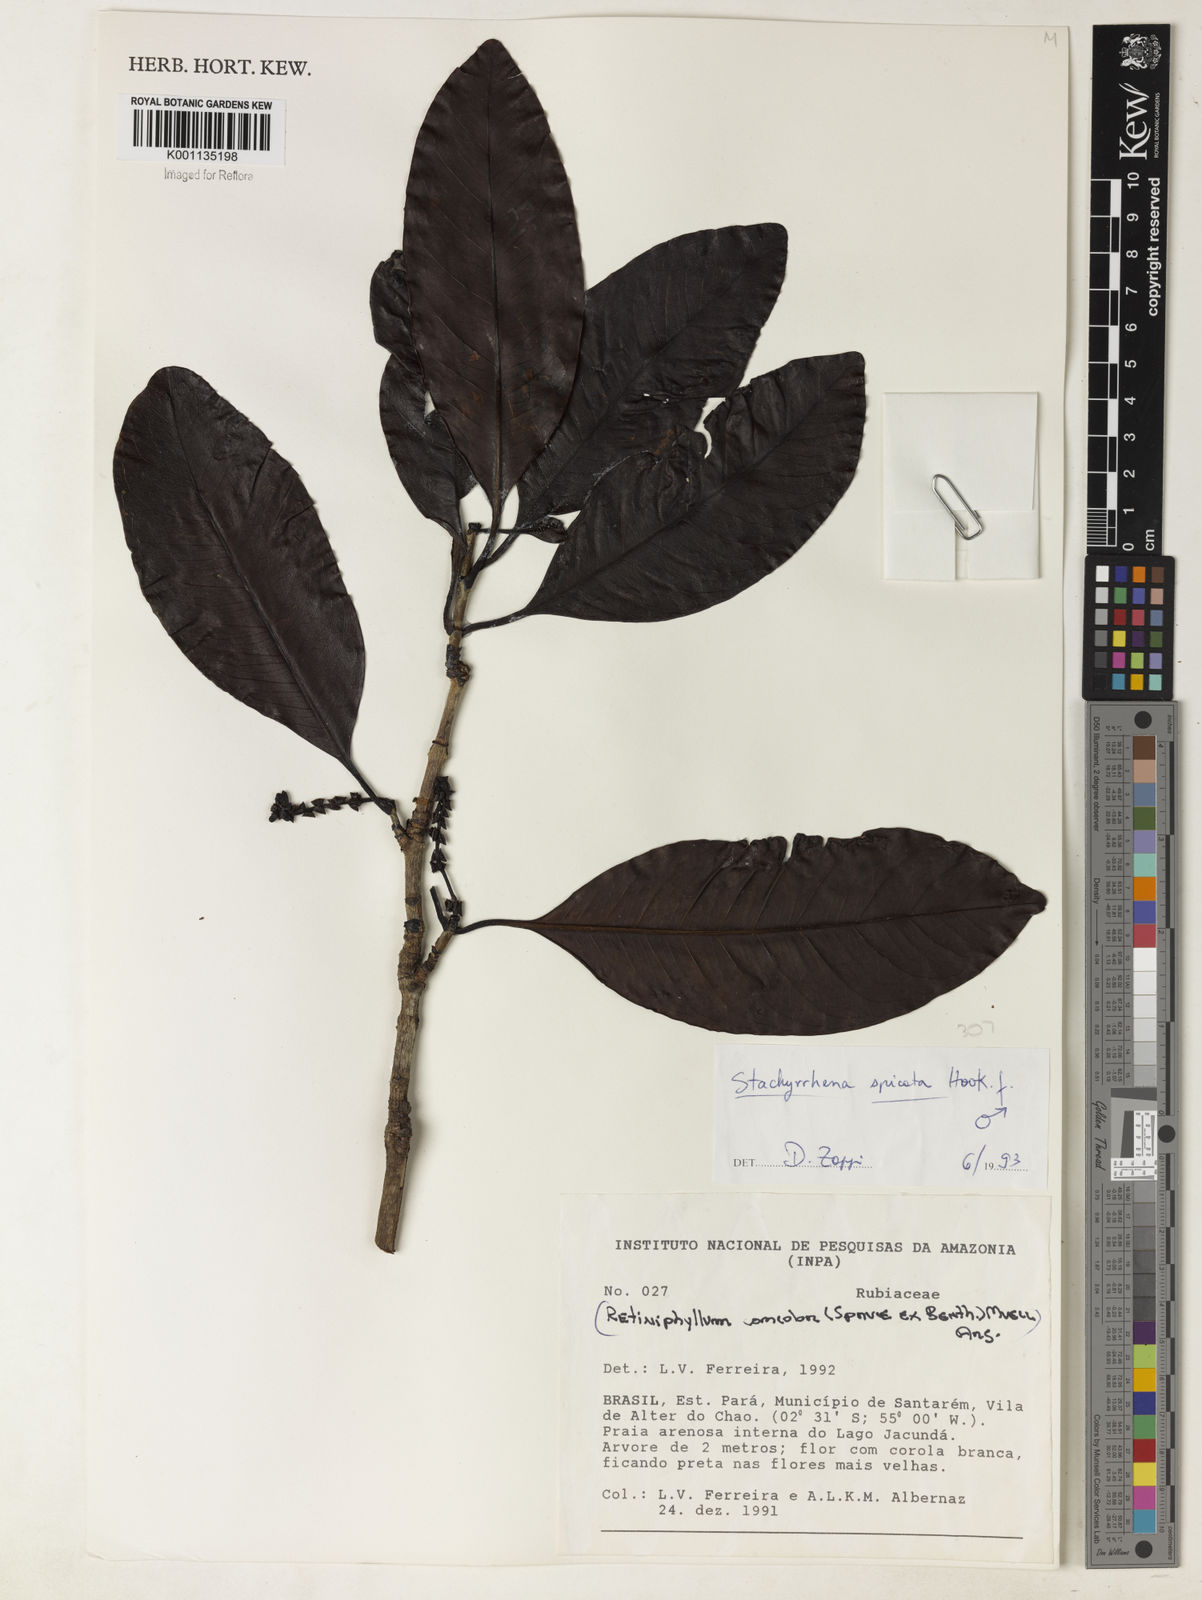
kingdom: Plantae
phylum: Tracheophyta
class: Magnoliopsida
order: Gentianales
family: Rubiaceae
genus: Stachyarrhena
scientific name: Stachyarrhena spicata
